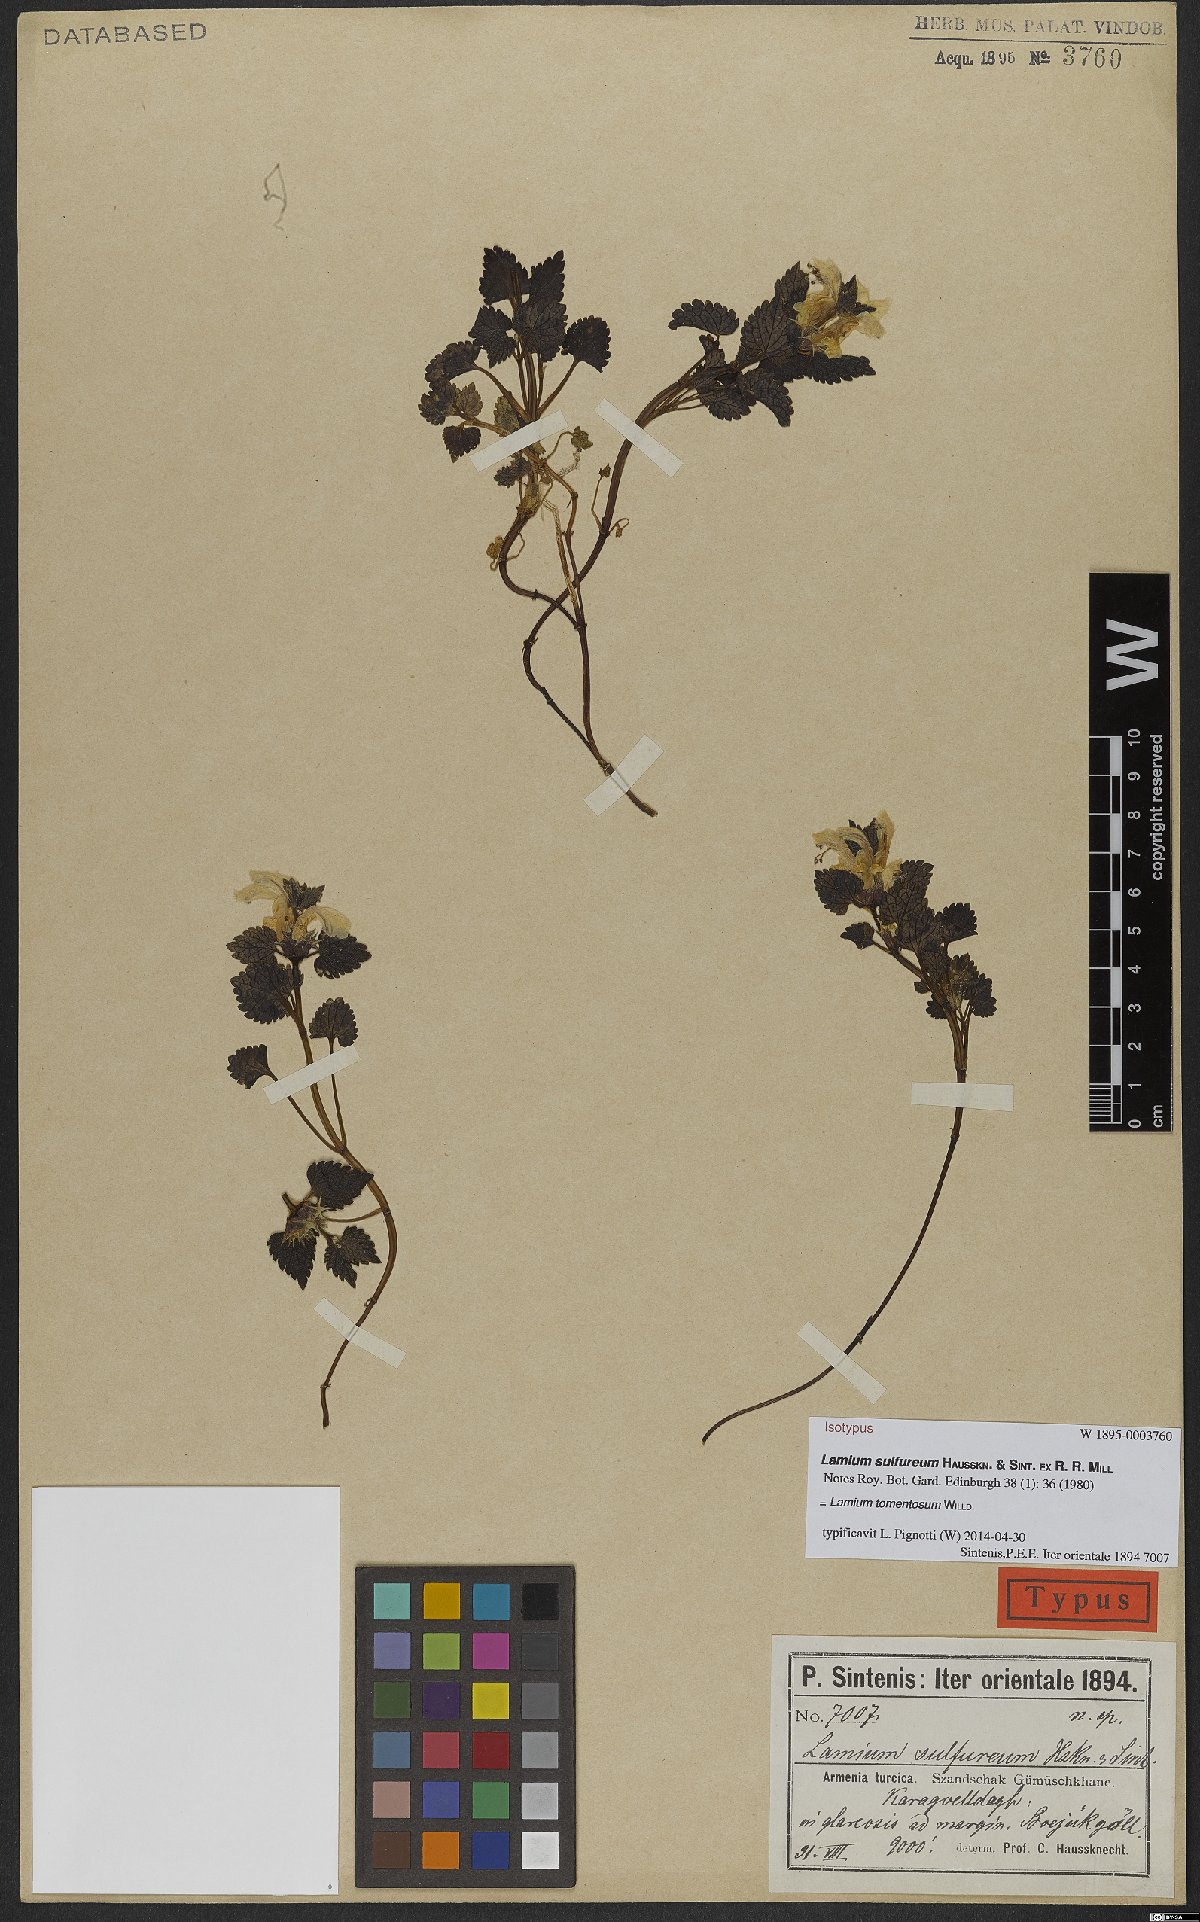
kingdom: Plantae
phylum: Tracheophyta
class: Magnoliopsida
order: Lamiales
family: Lamiaceae
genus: Lamium
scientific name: Lamium tomentosum
